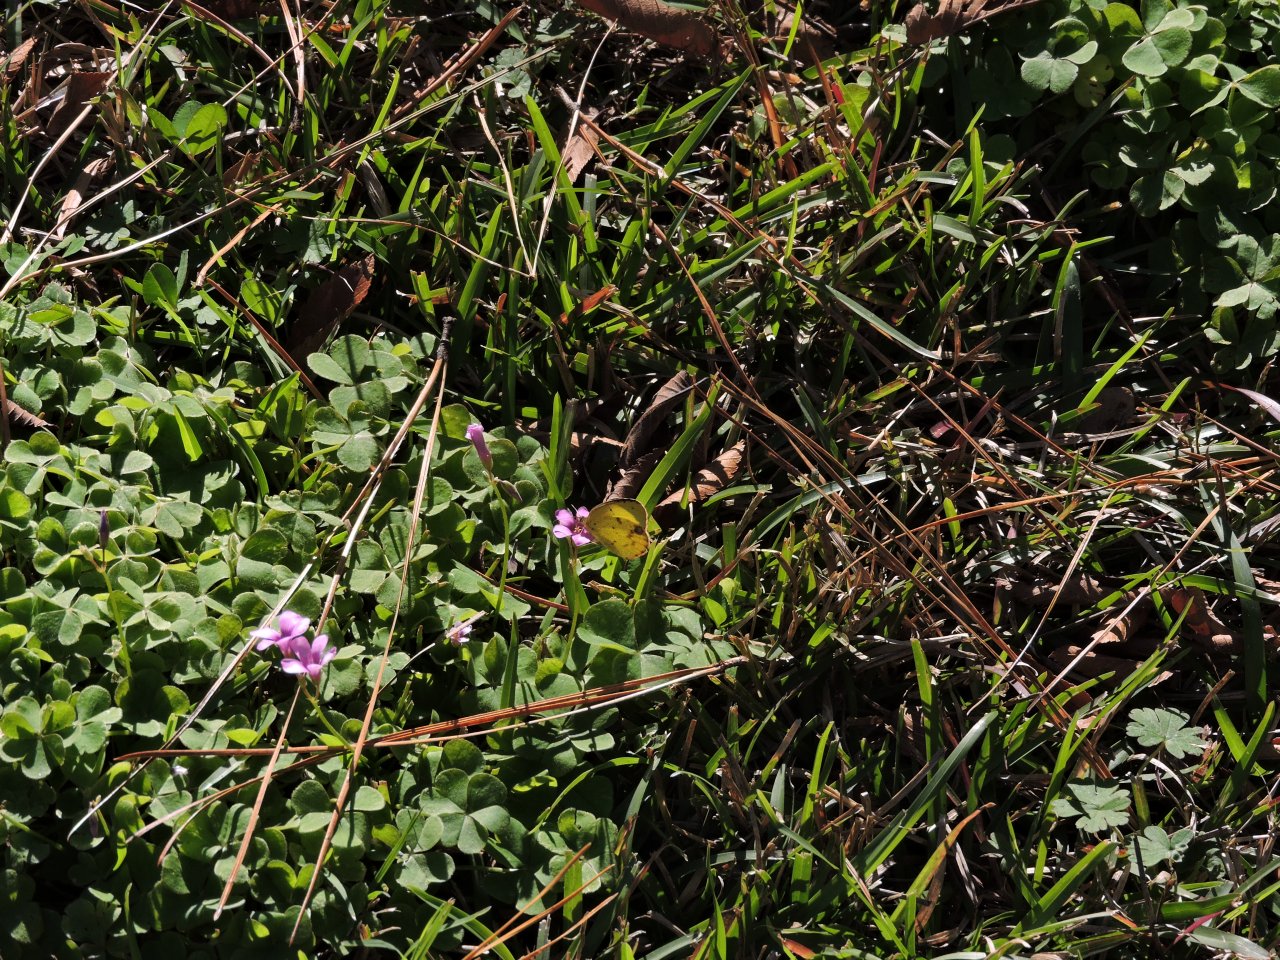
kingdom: Animalia
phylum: Arthropoda
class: Insecta
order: Lepidoptera
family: Pieridae
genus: Pyrisitia
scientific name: Pyrisitia lisa
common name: Little Yellow
